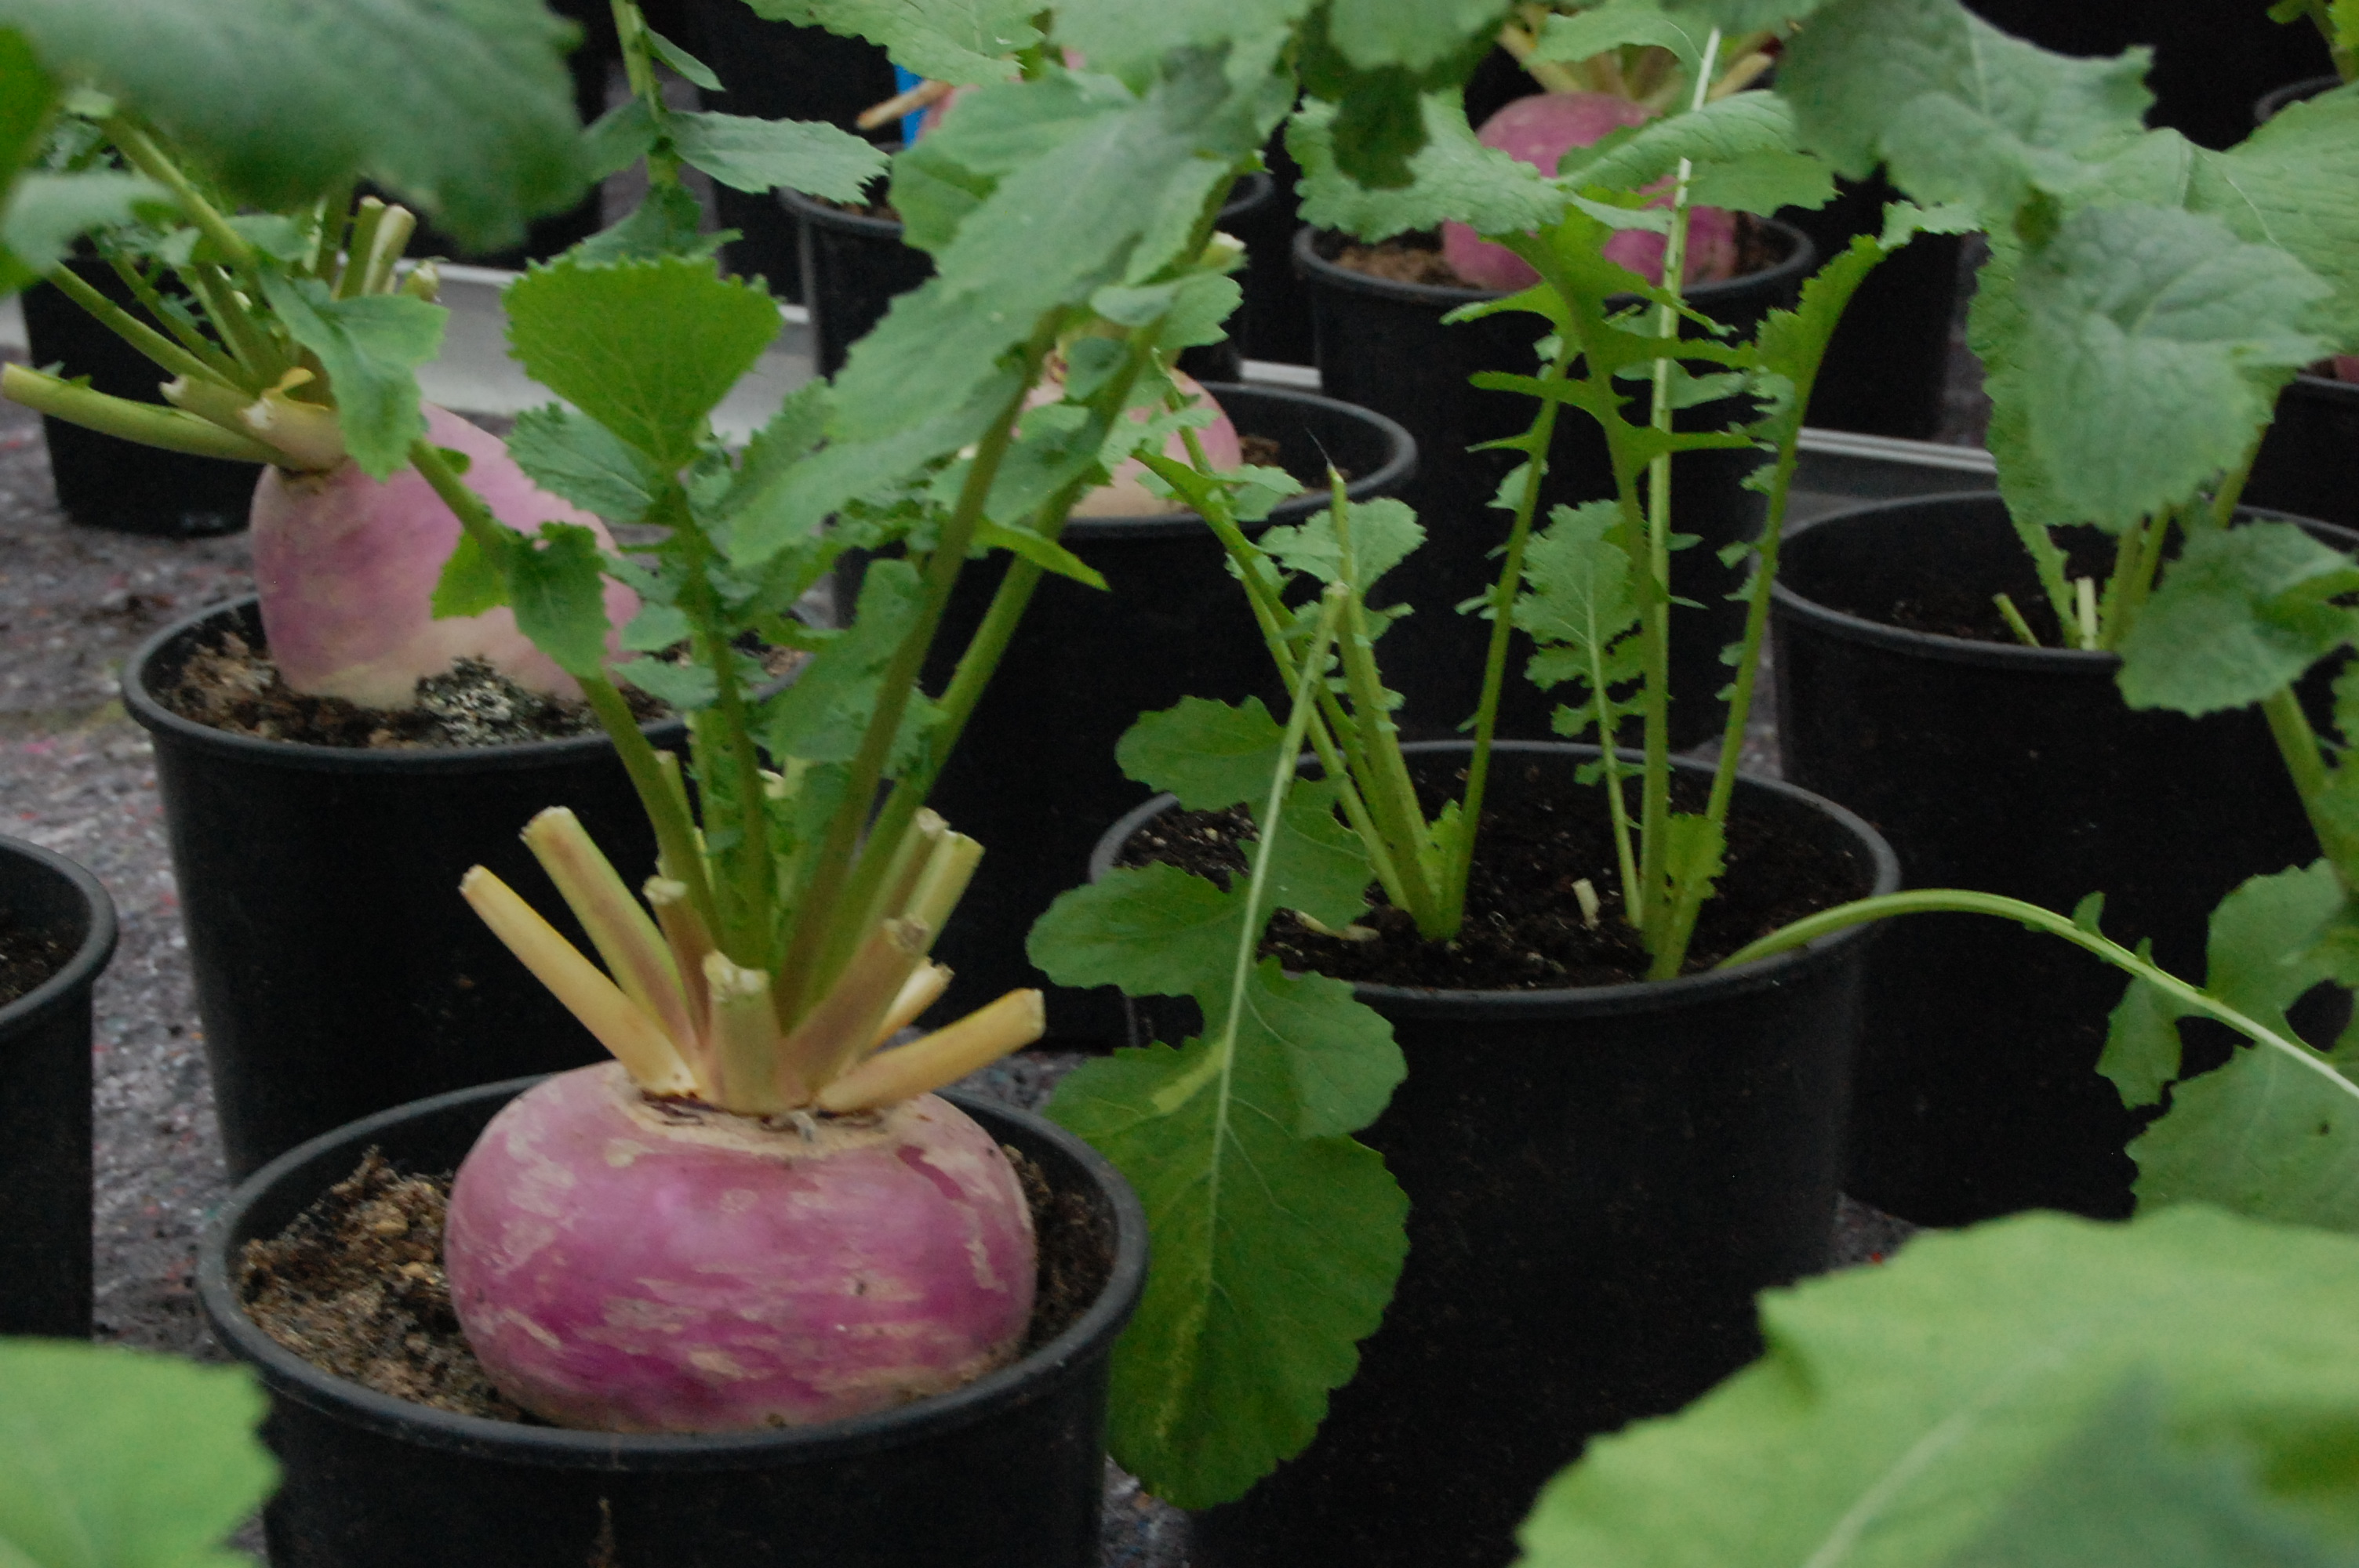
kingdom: Plantae
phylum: Tracheophyta
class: Magnoliopsida
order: Brassicales
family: Brassicaceae
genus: Brassica
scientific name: Brassica rapa
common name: Field mustard
